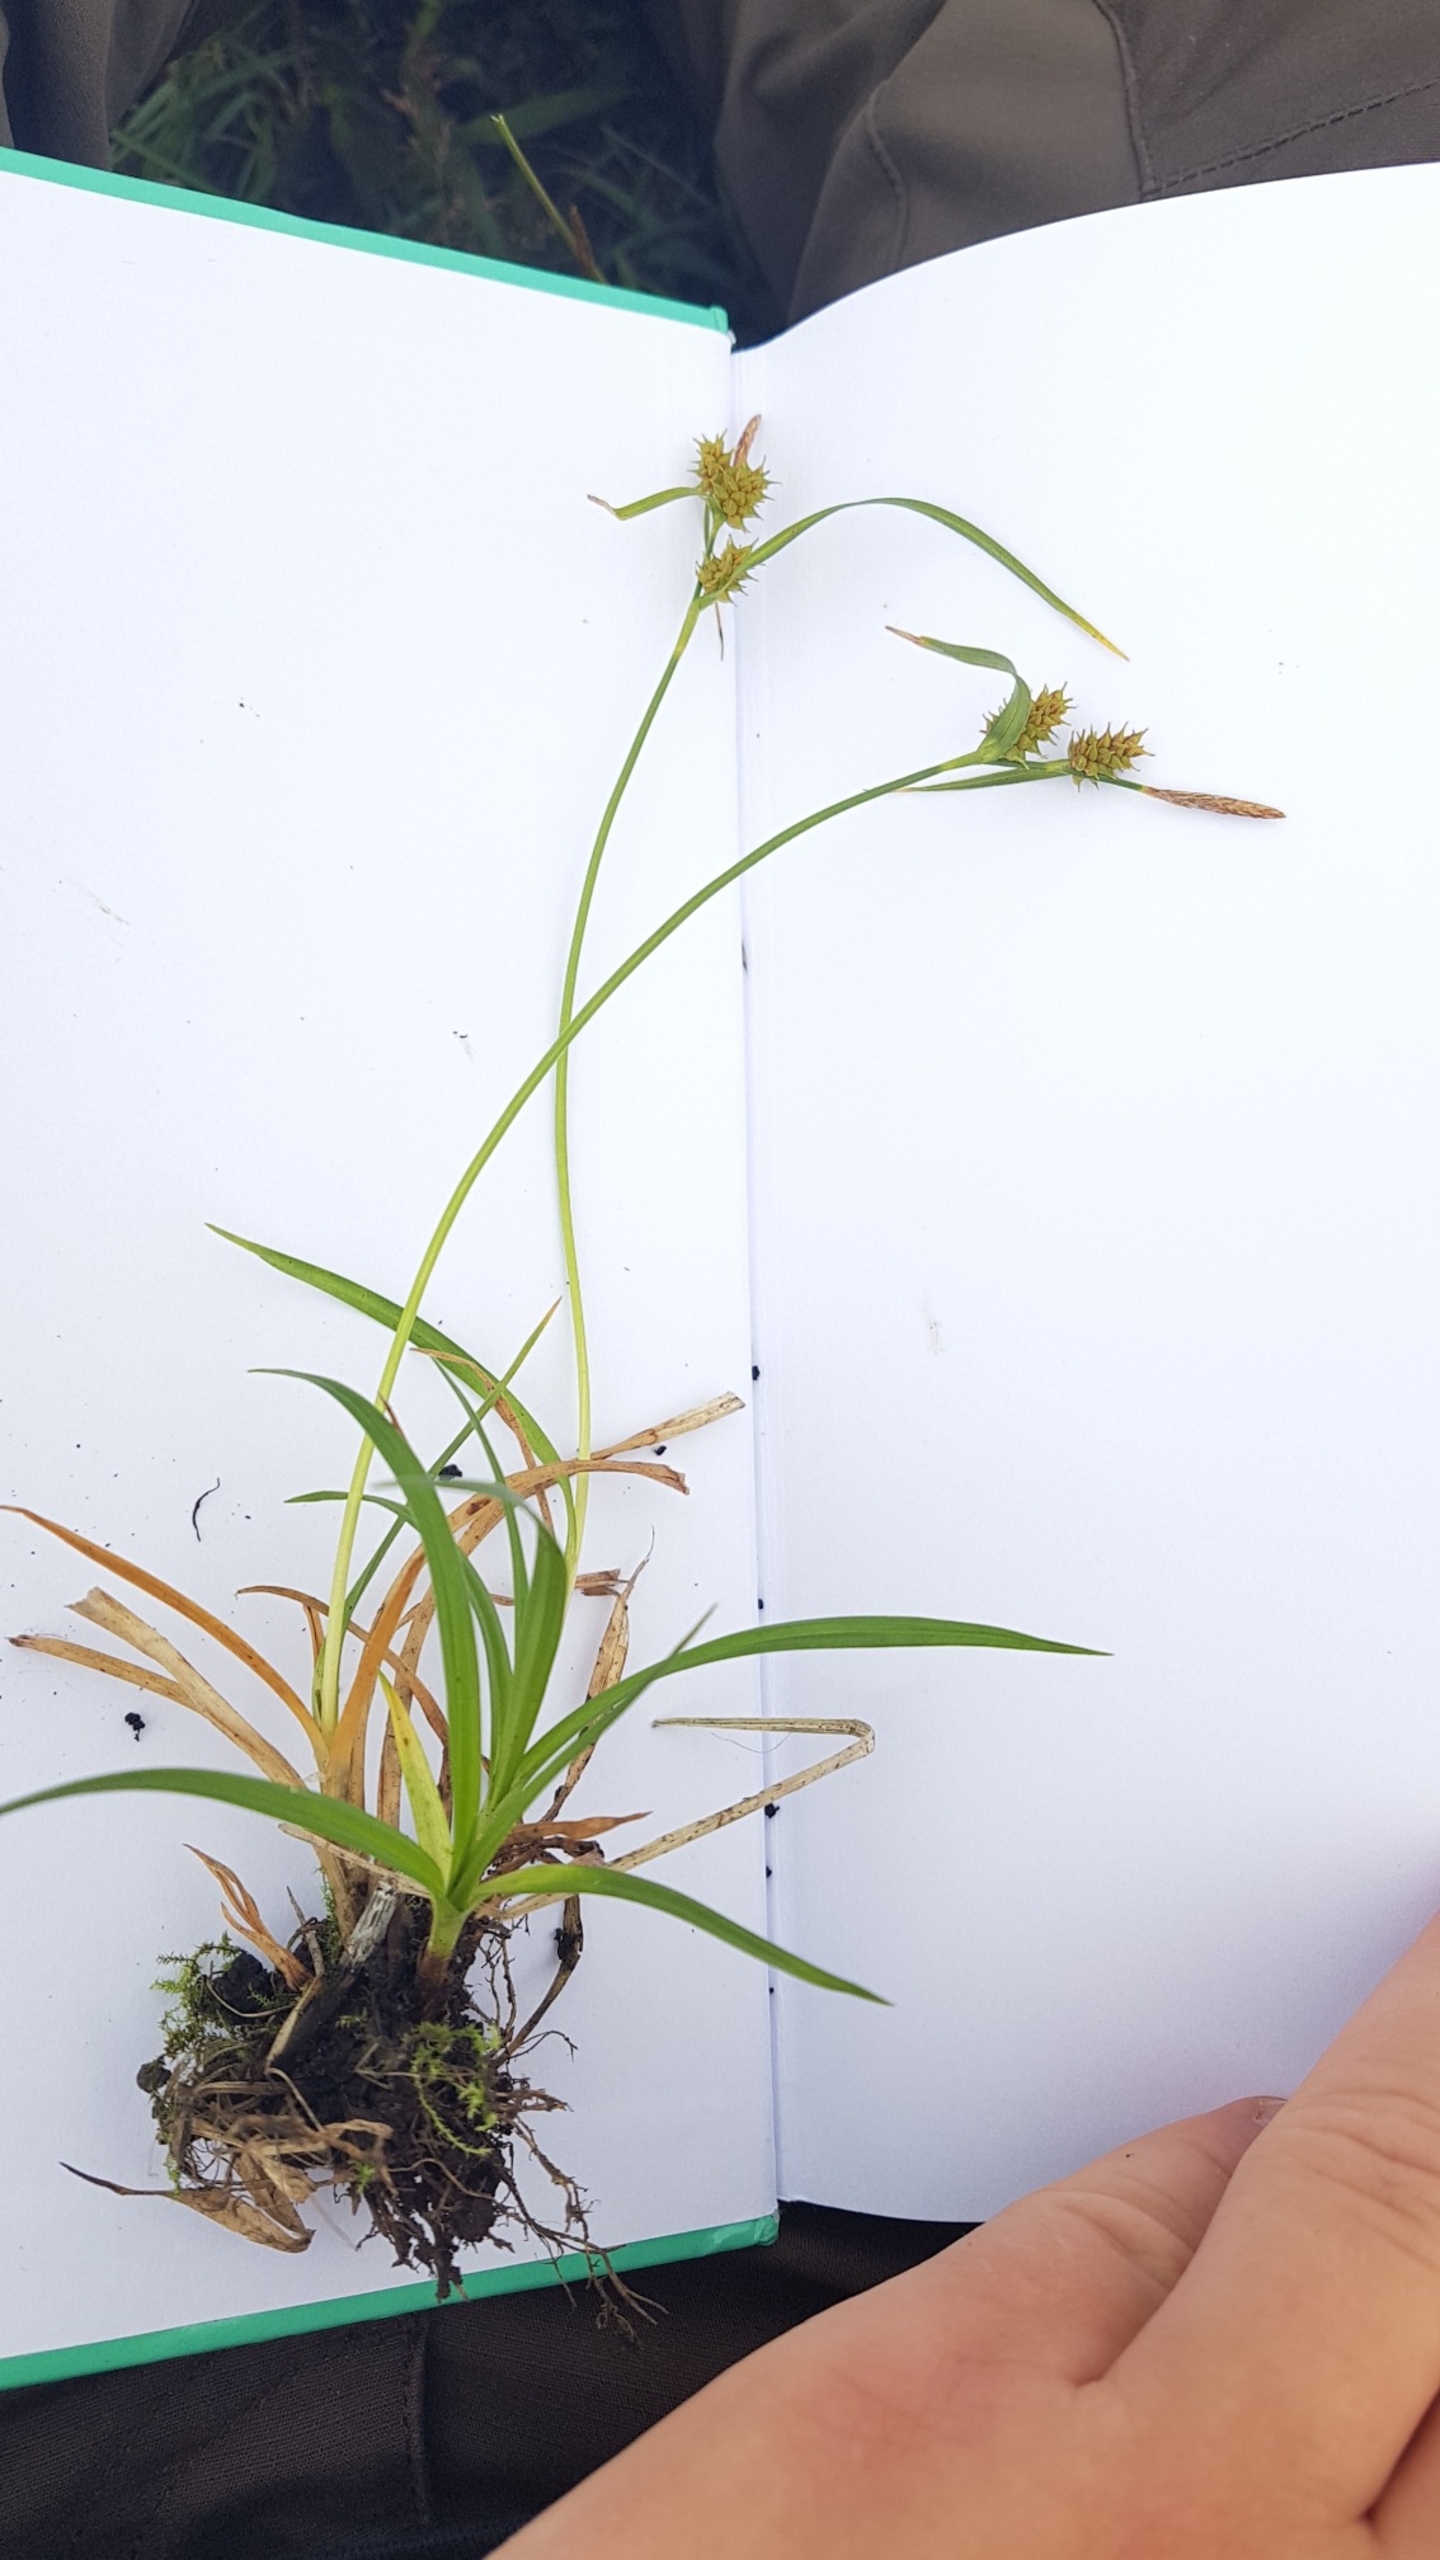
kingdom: Plantae
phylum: Tracheophyta
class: Liliopsida
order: Poales
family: Cyperaceae
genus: Carex
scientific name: Carex demissa
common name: Grøn star
